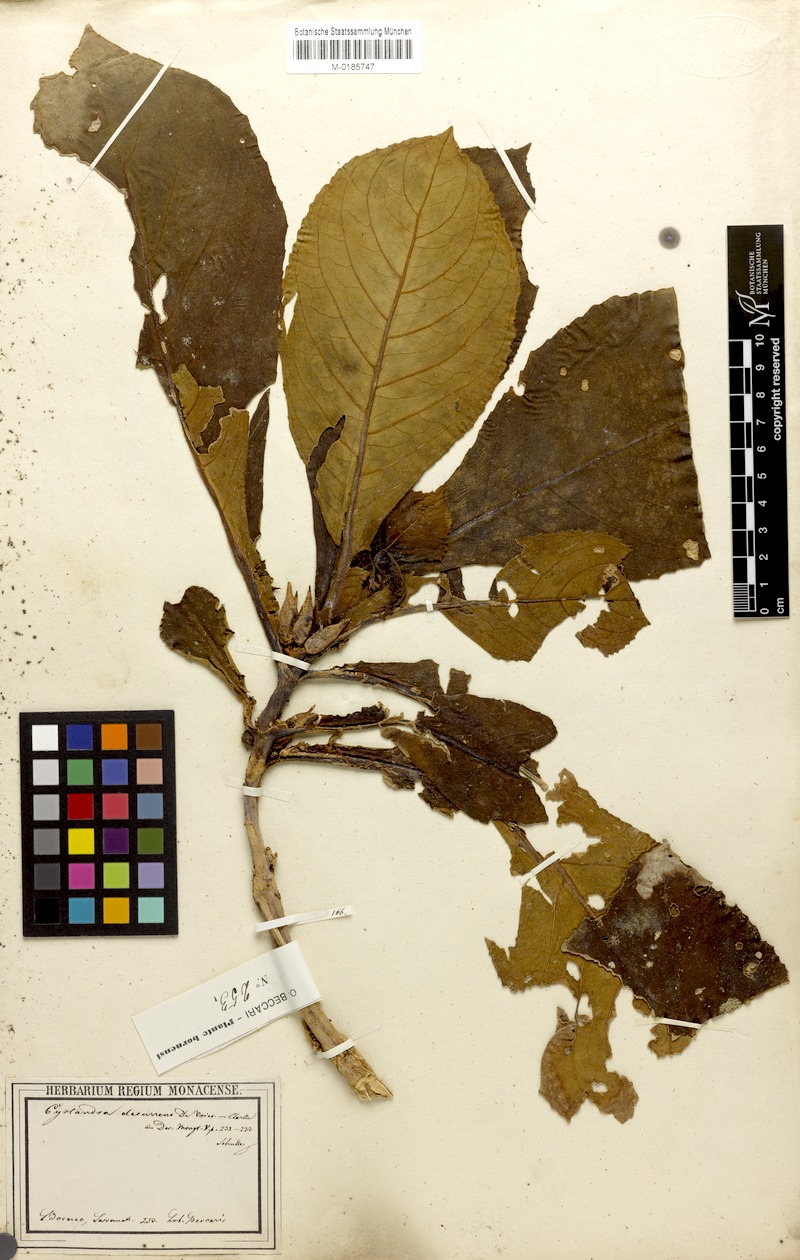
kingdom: Plantae
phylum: Tracheophyta
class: Magnoliopsida
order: Lamiales
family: Gesneriaceae
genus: Cyrtandra
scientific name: Cyrtandra decurrens
